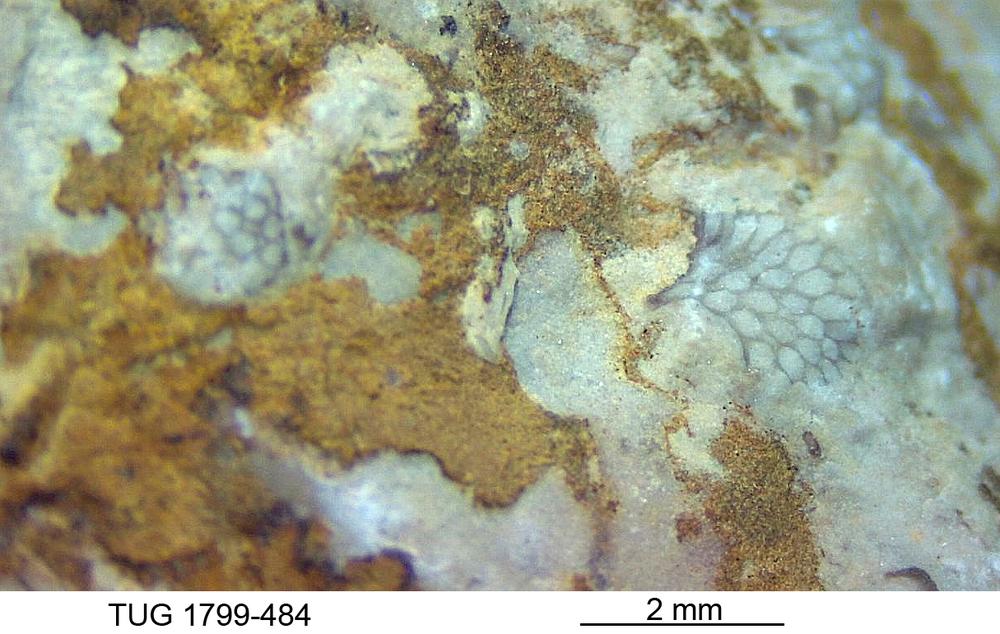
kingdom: Animalia
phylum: Bryozoa
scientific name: Bryozoa
